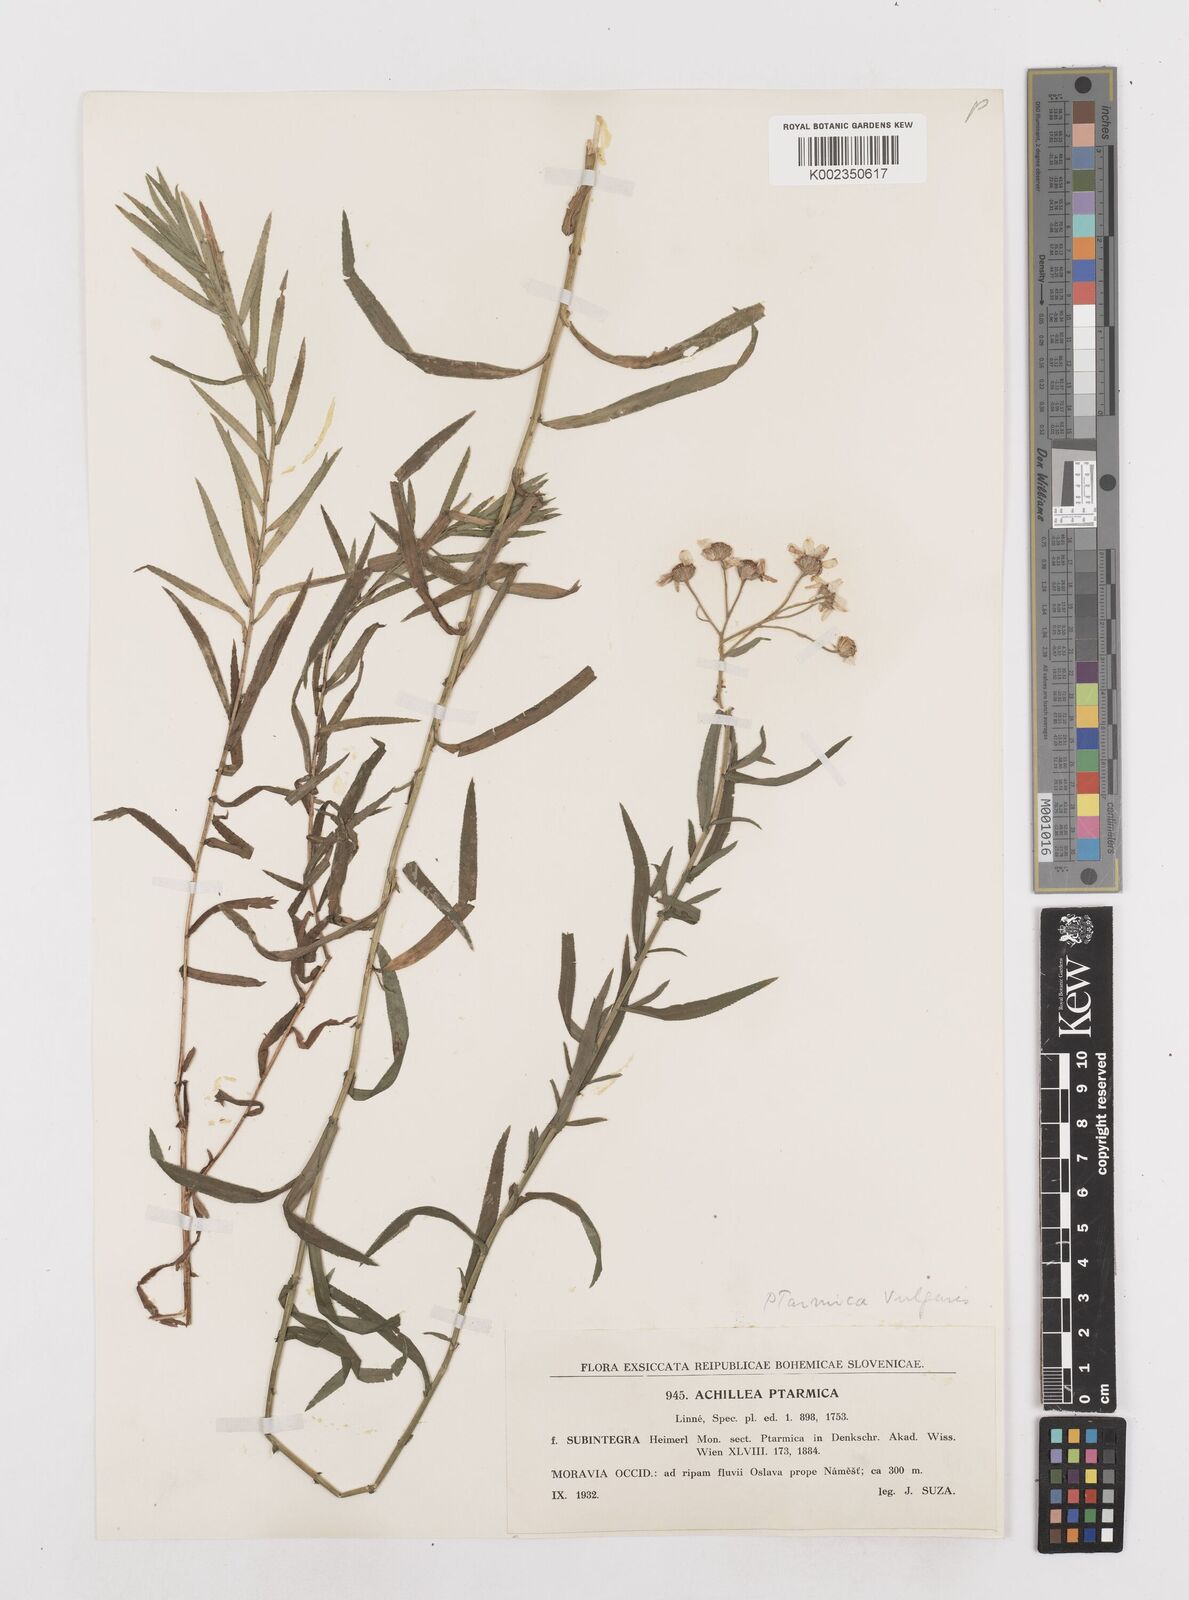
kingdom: Plantae
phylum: Tracheophyta
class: Magnoliopsida
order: Asterales
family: Asteraceae
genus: Achillea
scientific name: Achillea
